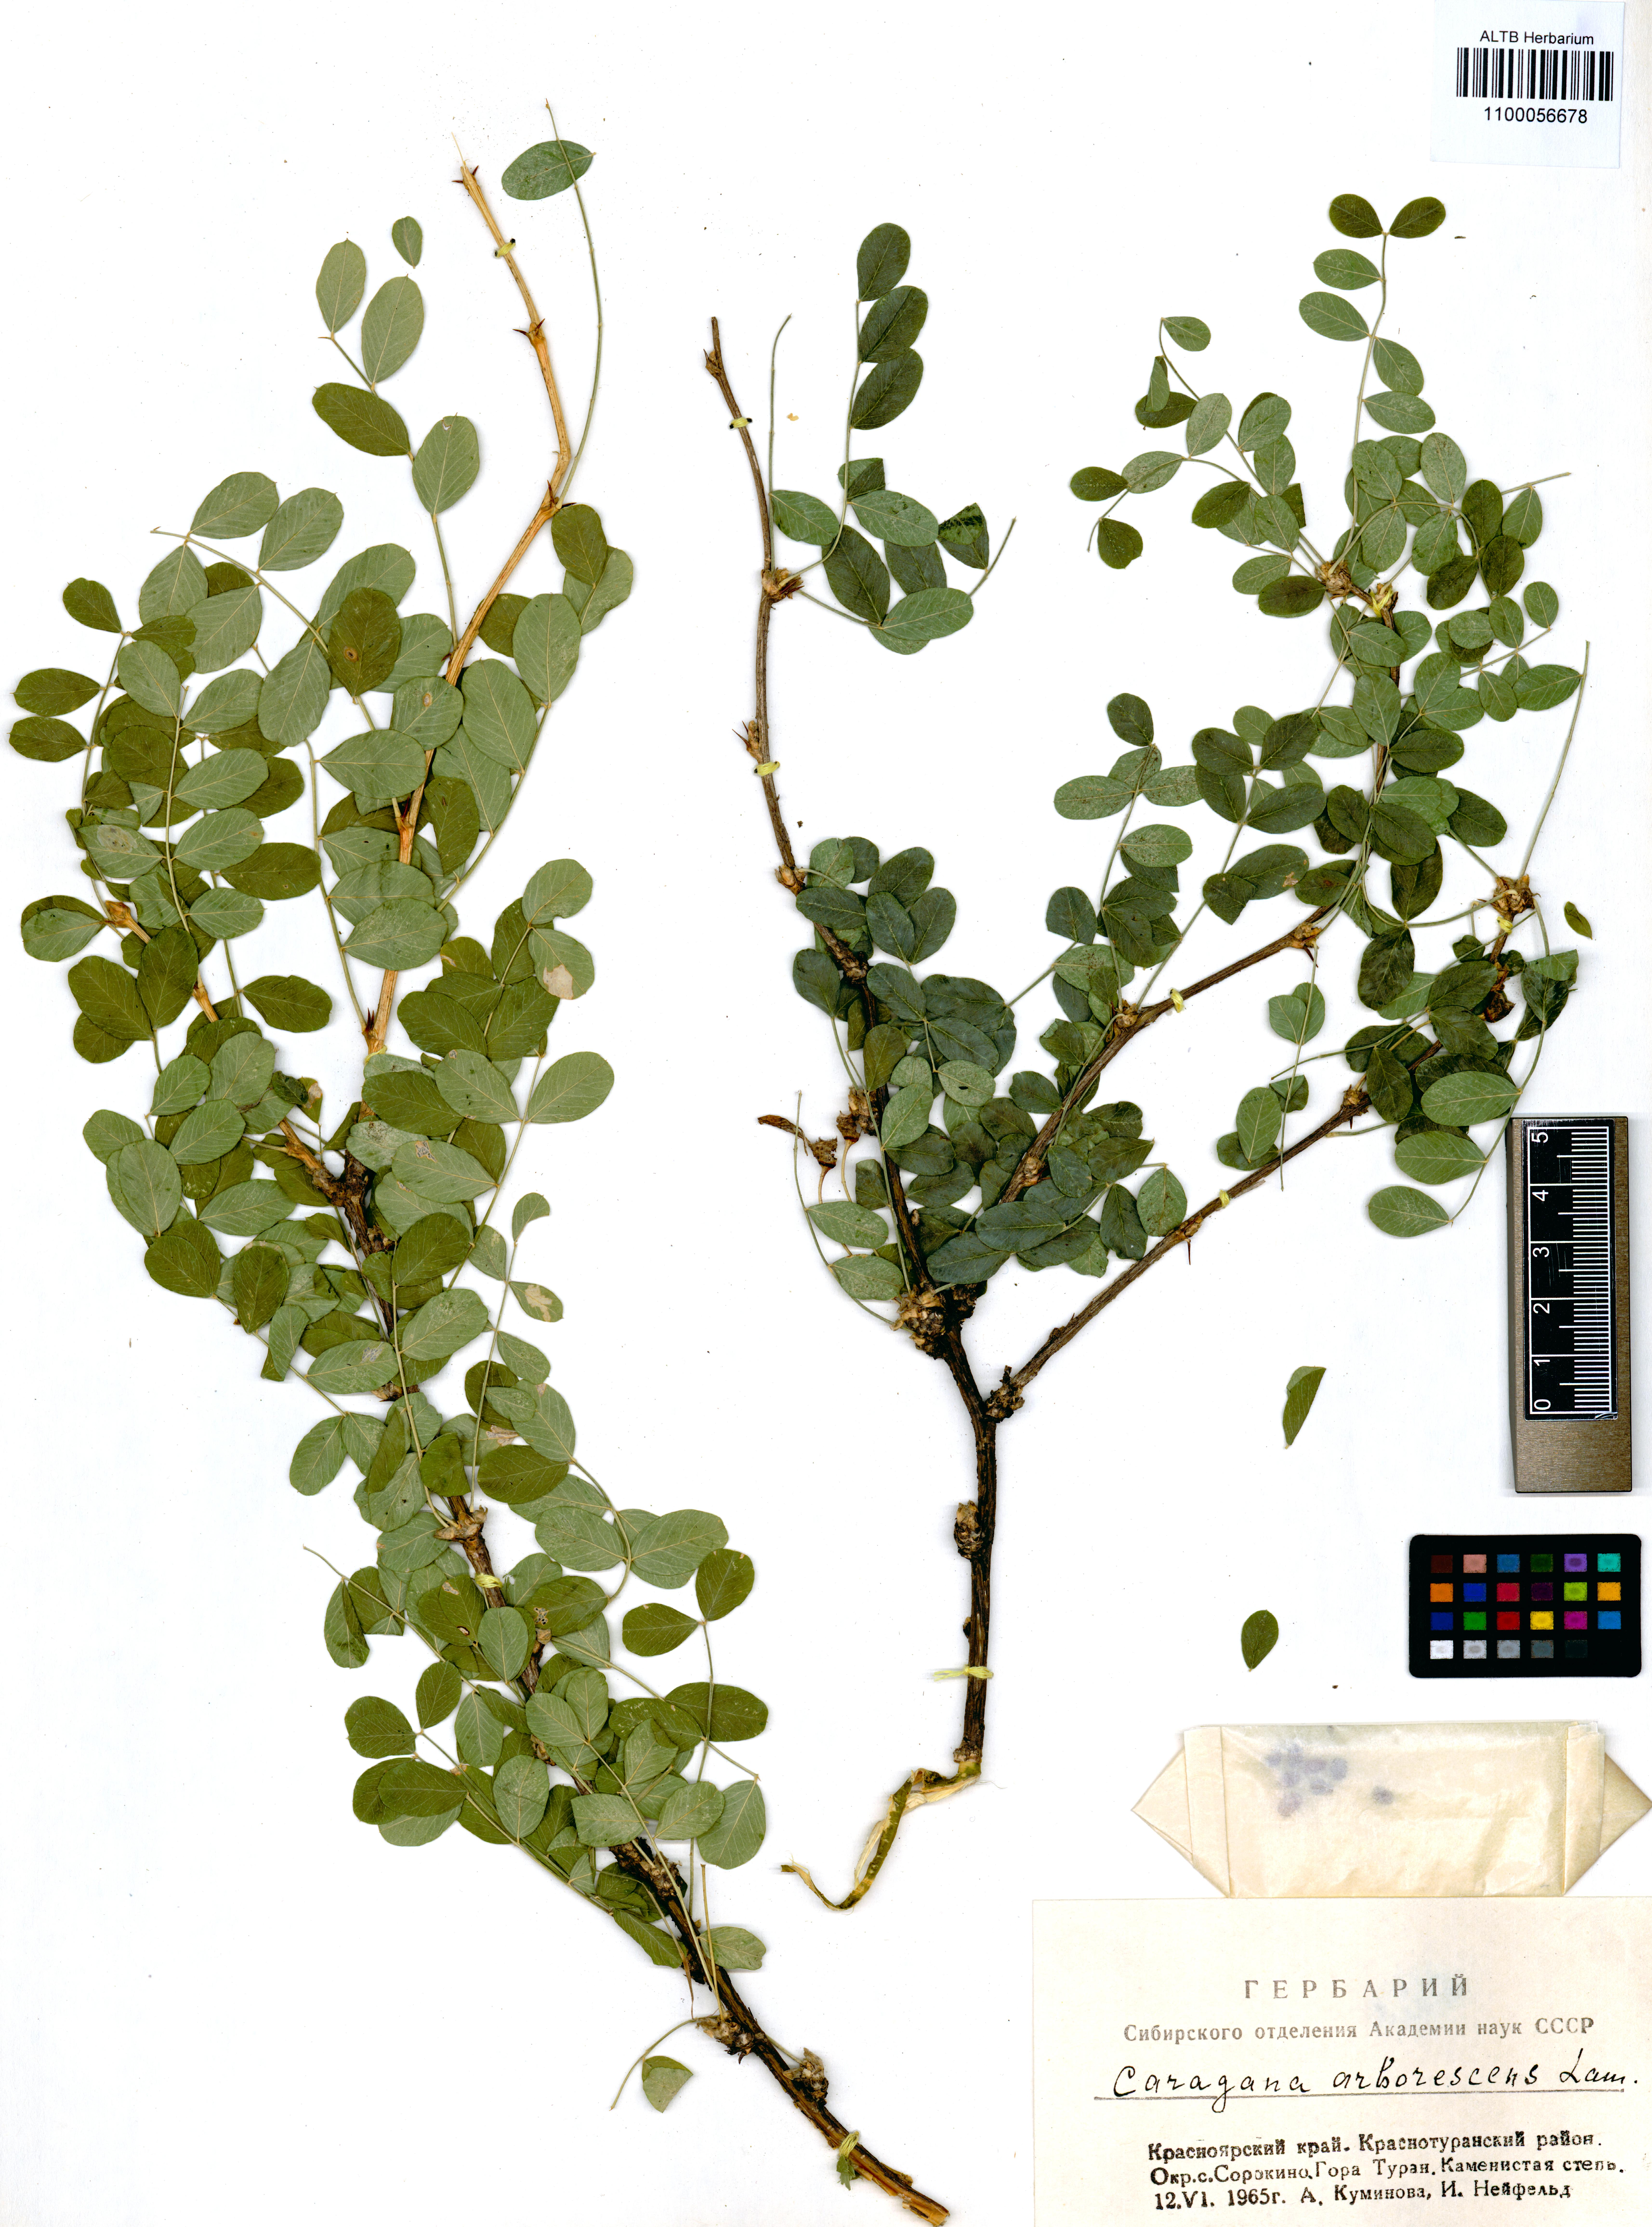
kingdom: Plantae
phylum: Tracheophyta
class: Magnoliopsida
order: Fabales
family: Fabaceae
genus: Caragana
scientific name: Caragana arborescens
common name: Siberian peashrub
